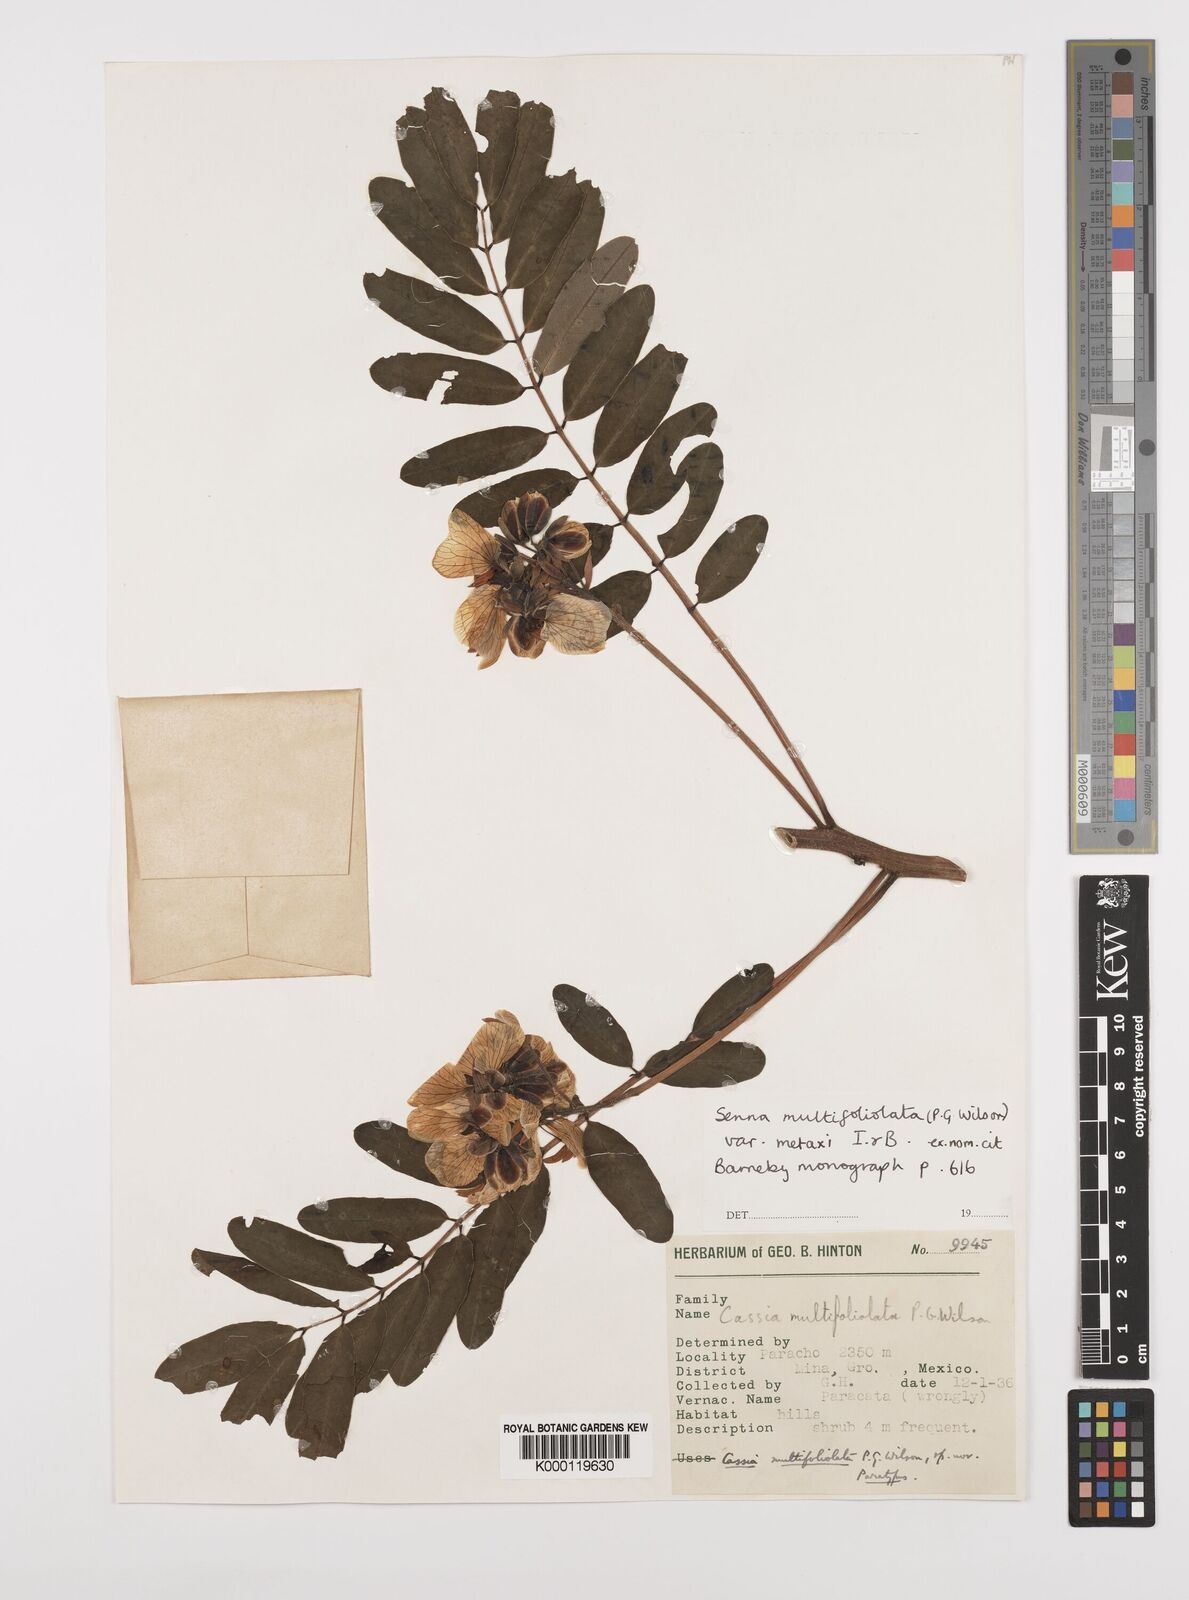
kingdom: Plantae
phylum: Tracheophyta
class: Magnoliopsida
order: Fabales
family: Fabaceae
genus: Senna
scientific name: Senna multifoliolata
